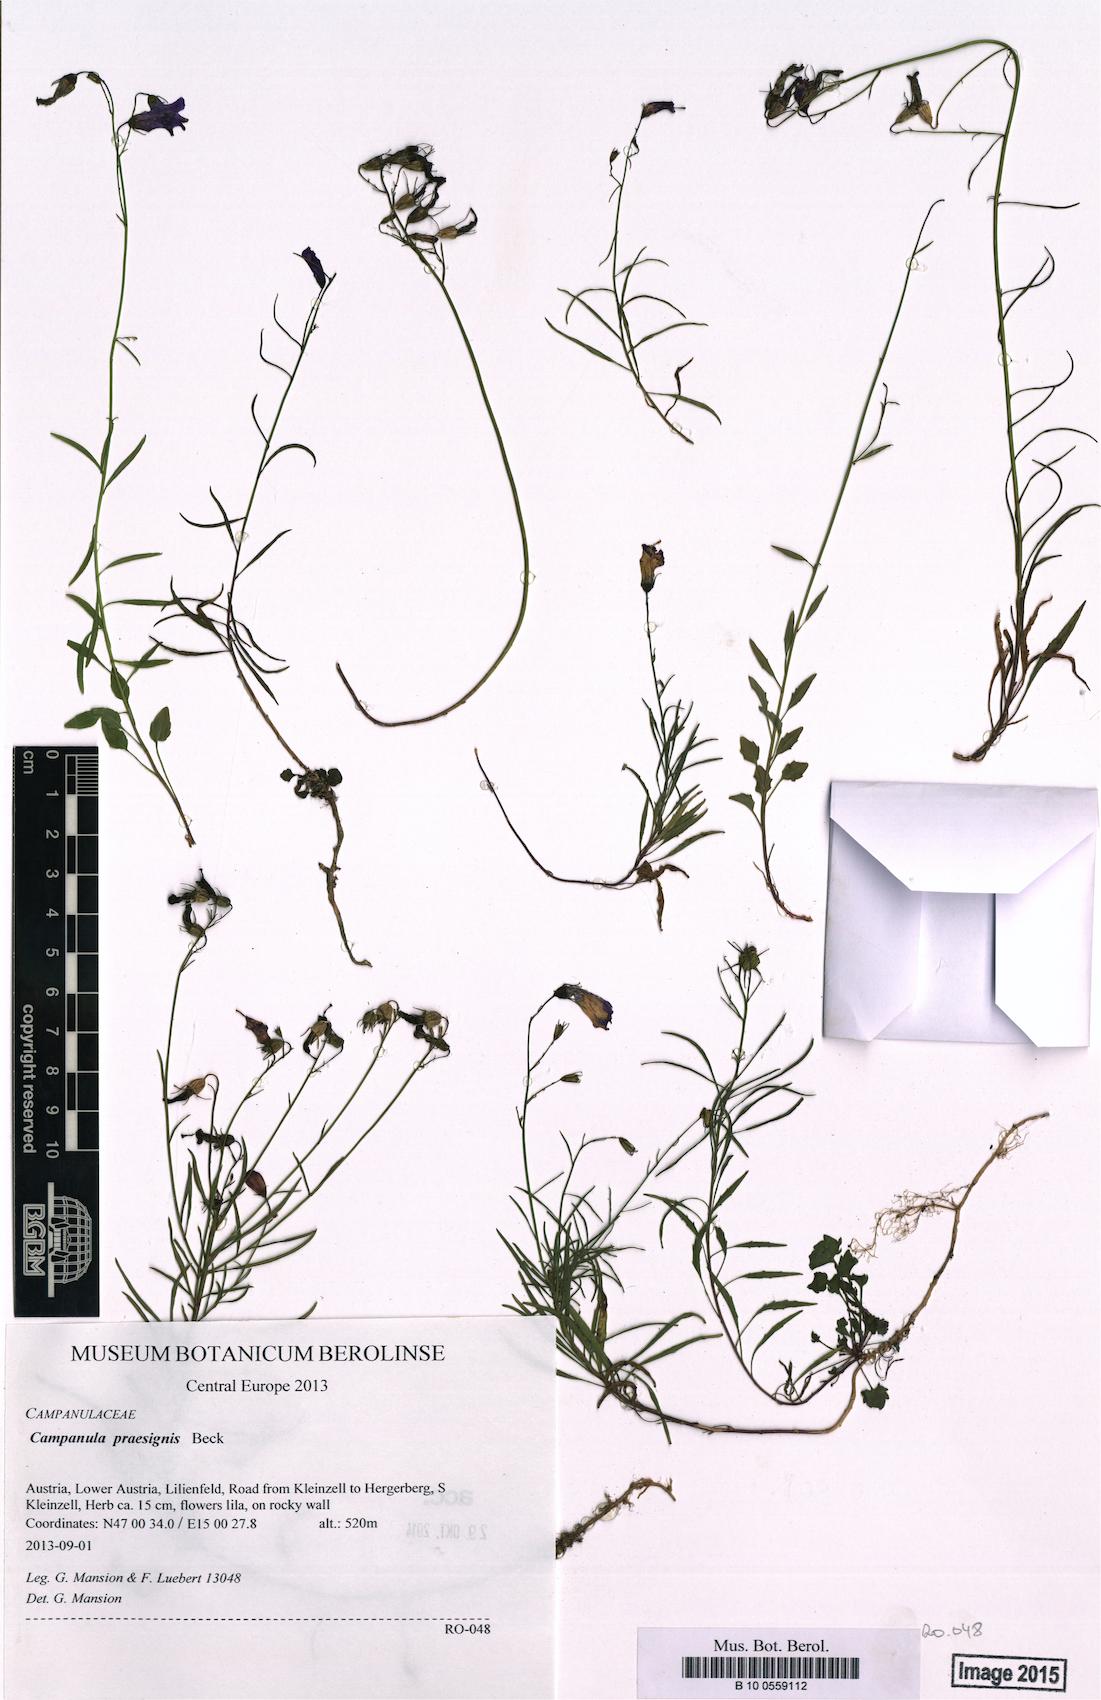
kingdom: Plantae
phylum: Tracheophyta
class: Magnoliopsida
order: Asterales
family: Campanulaceae
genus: Campanula
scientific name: Campanula praesignis
